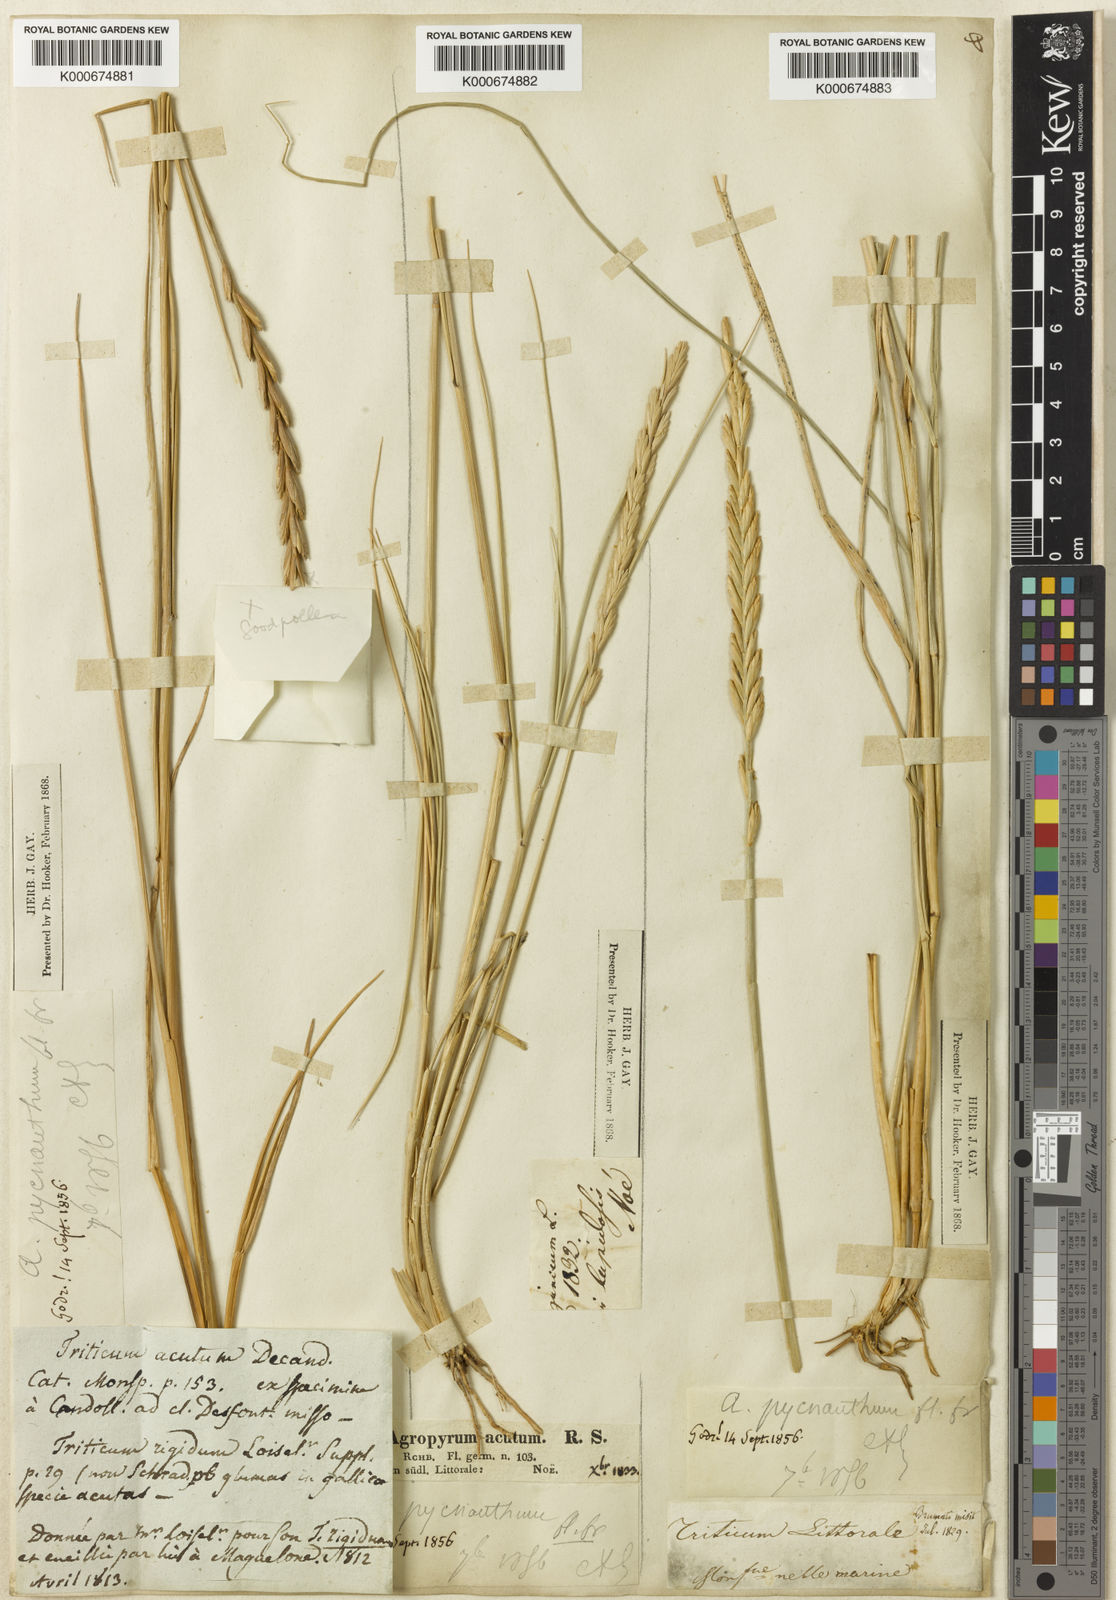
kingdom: Plantae
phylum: Tracheophyta
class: Liliopsida
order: Poales
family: Poaceae
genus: Elymus
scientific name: Elymus
